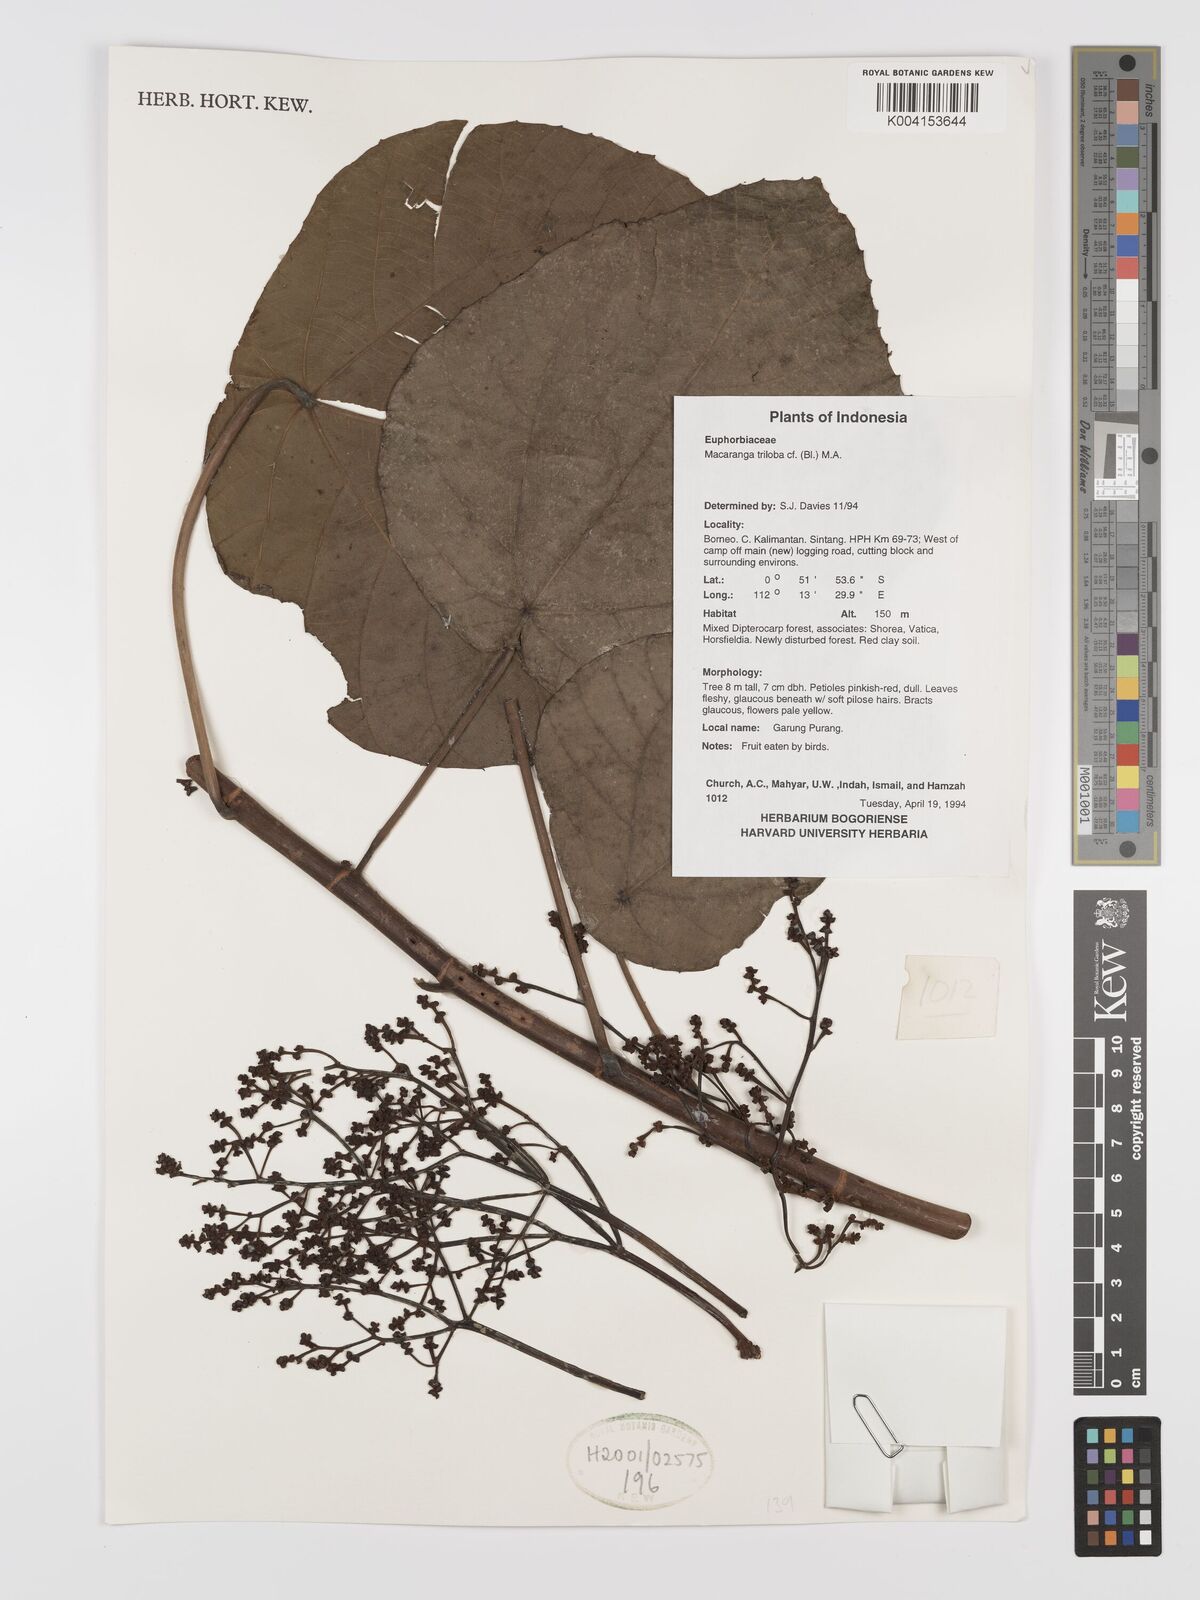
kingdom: Plantae
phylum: Tracheophyta
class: Magnoliopsida
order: Malpighiales
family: Euphorbiaceae
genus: Macaranga
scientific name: Macaranga triloba
